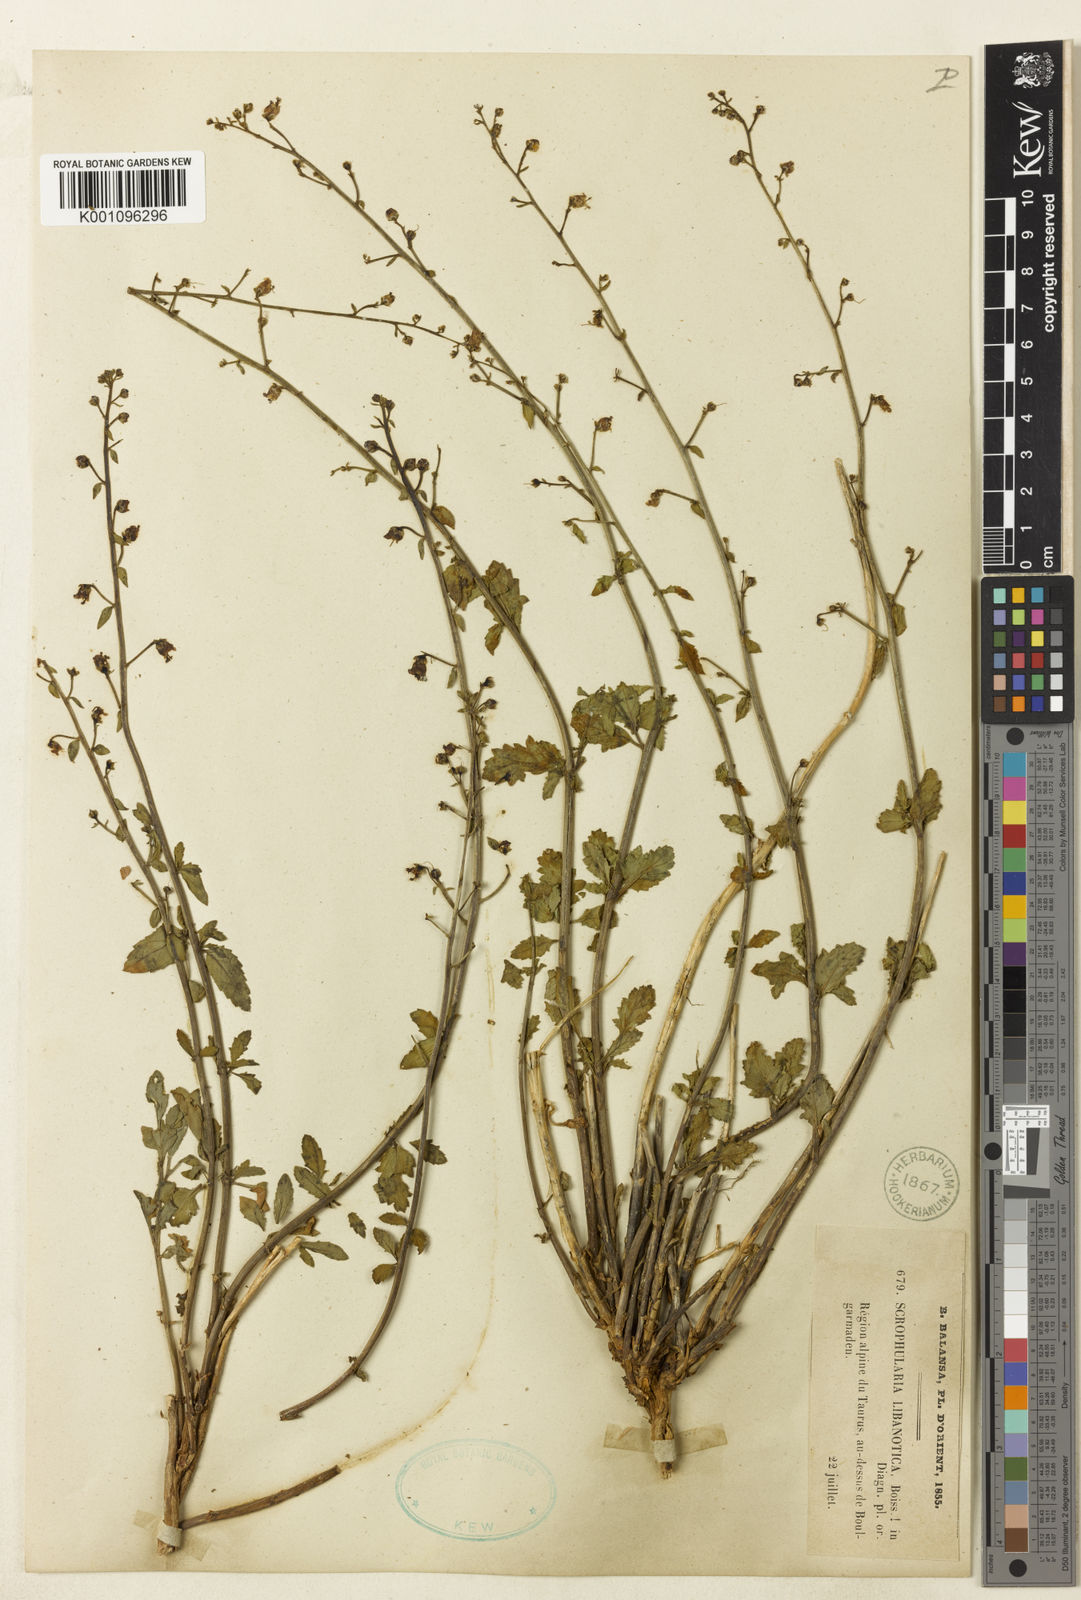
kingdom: Plantae
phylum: Tracheophyta
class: Magnoliopsida
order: Lamiales
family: Scrophulariaceae
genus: Scrophularia
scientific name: Scrophularia libanotica
